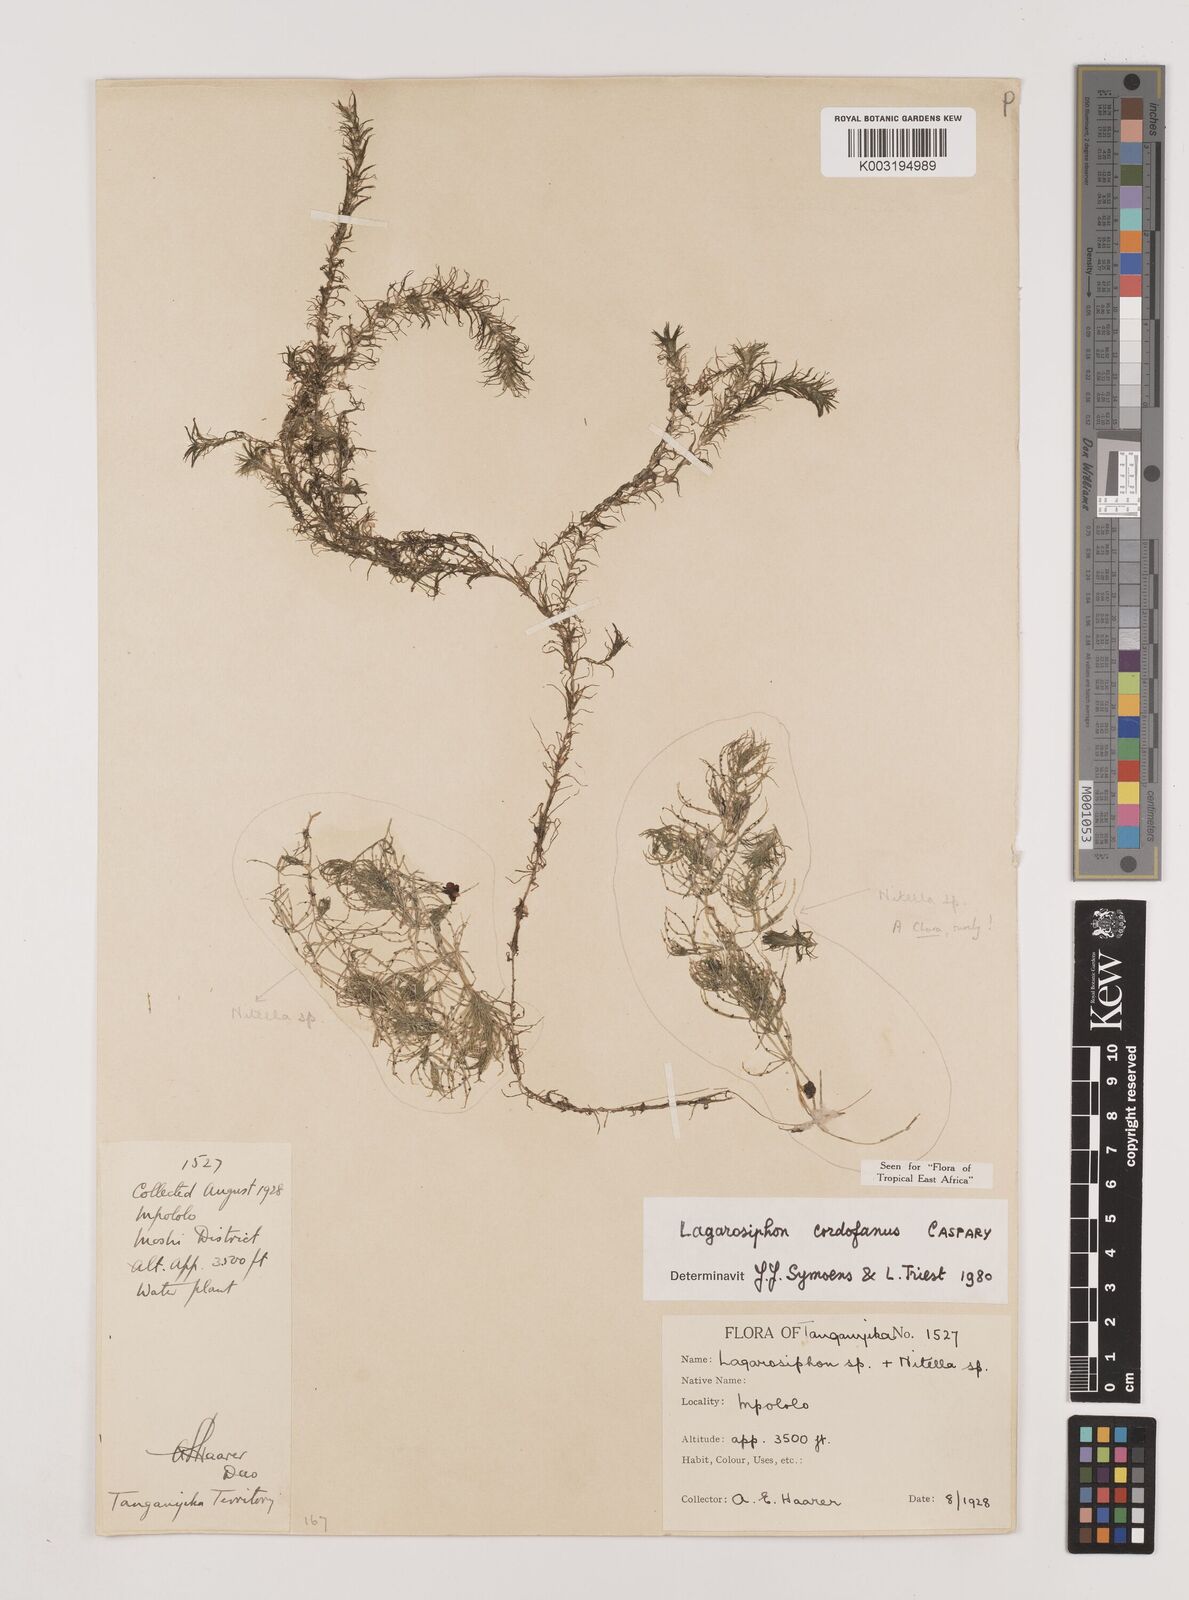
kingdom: Plantae
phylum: Tracheophyta
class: Liliopsida
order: Alismatales
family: Hydrocharitaceae
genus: Lagarosiphon
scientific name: Lagarosiphon cordofanus
